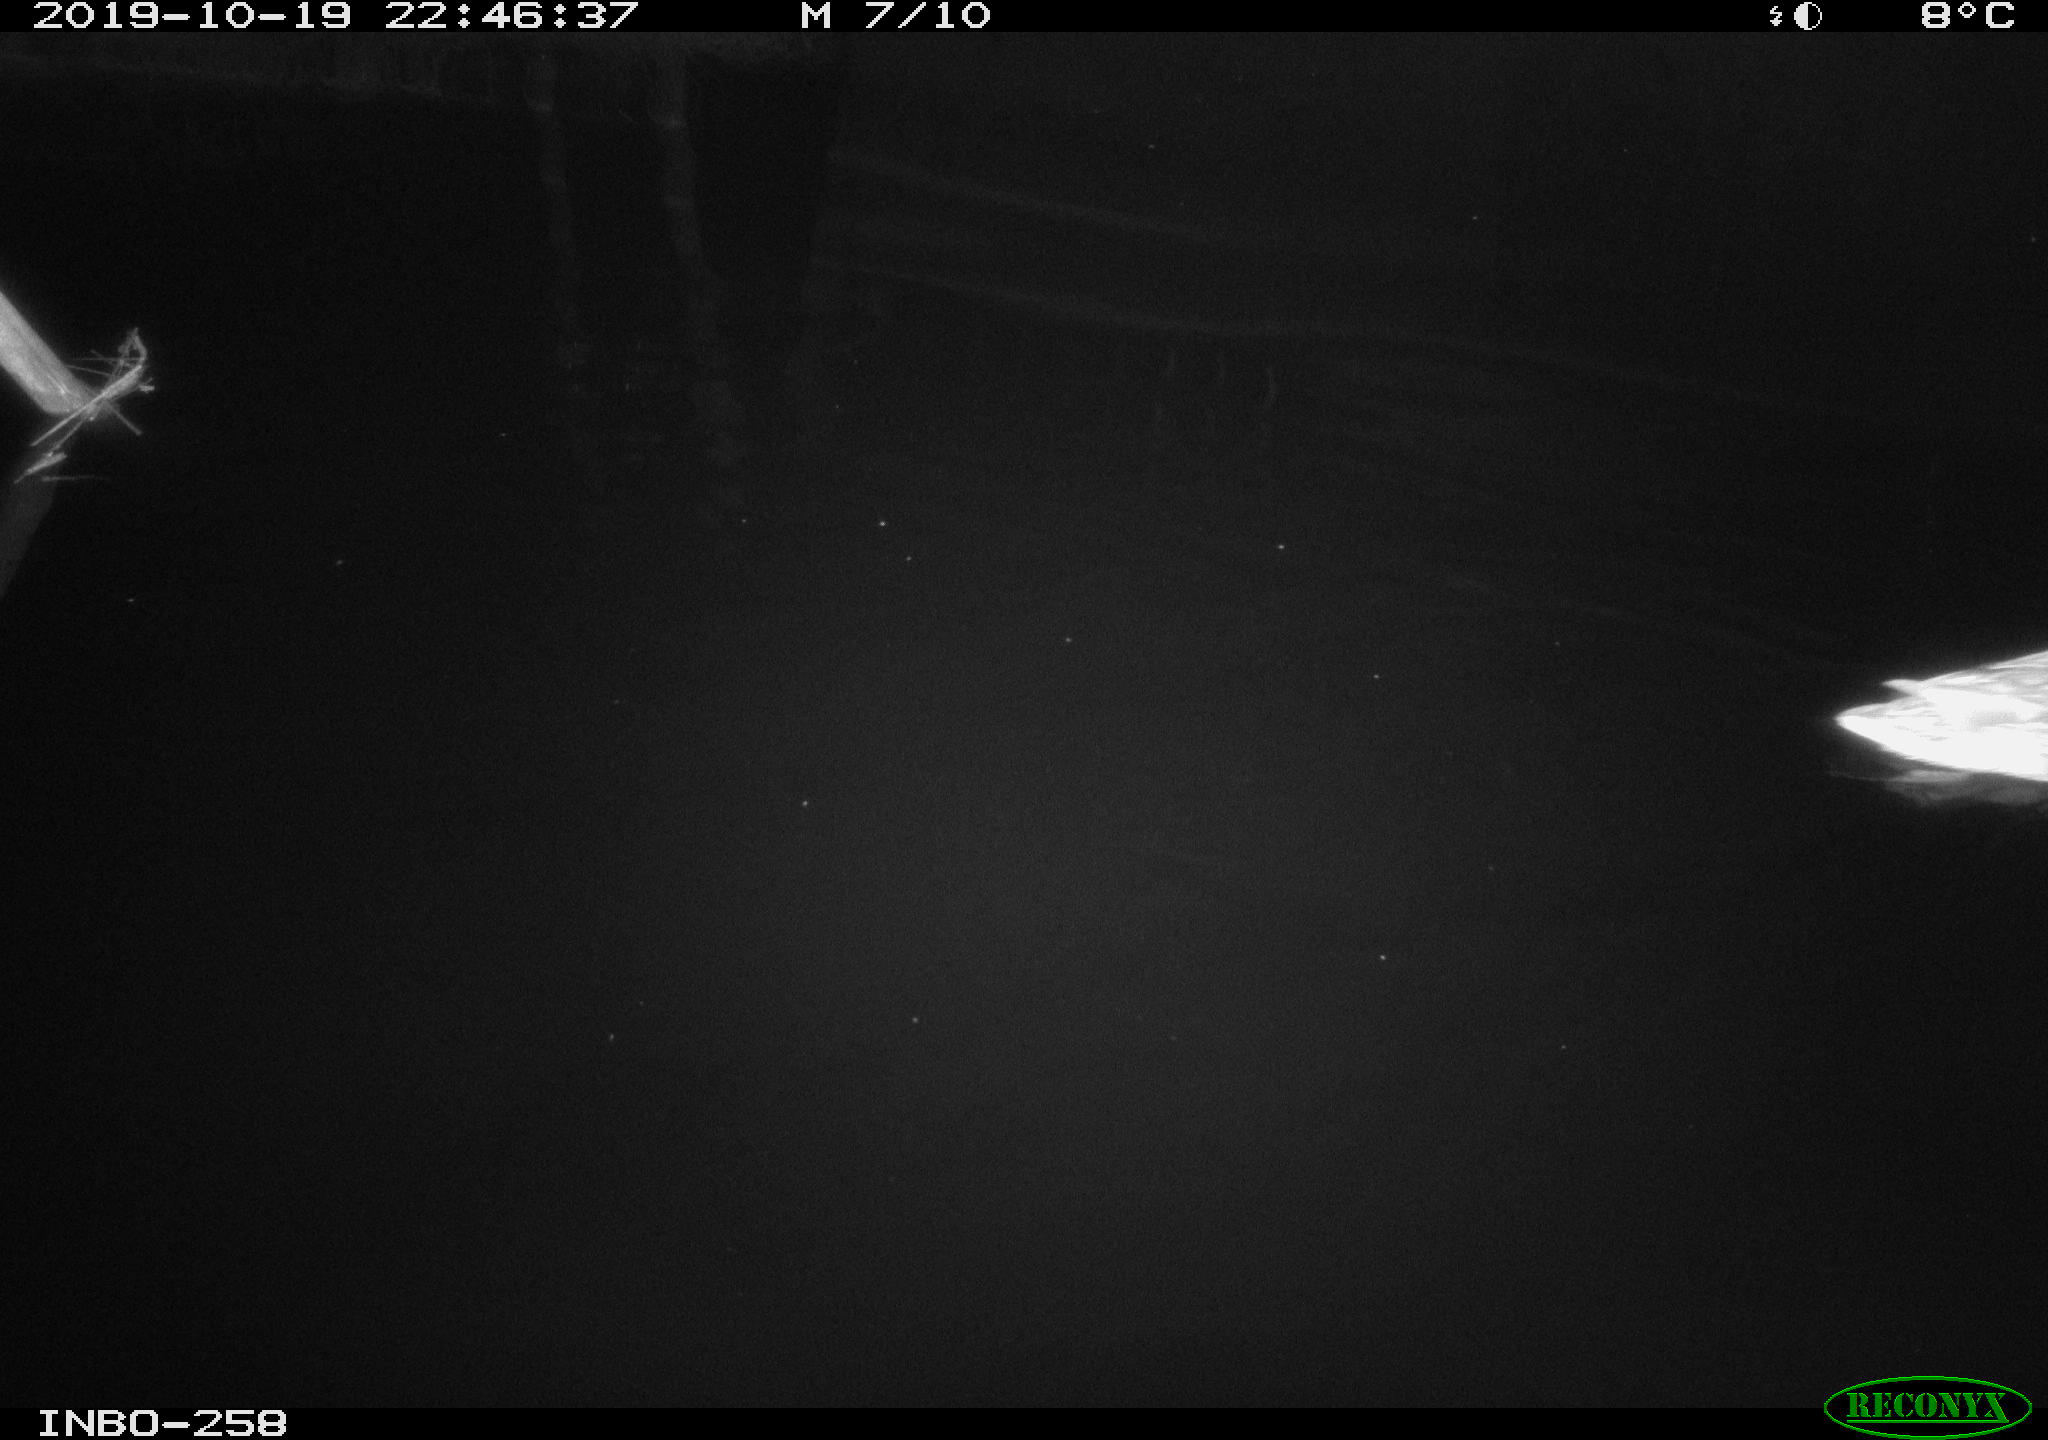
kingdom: Animalia
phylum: Chordata
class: Aves
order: Anseriformes
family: Anatidae
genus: Anas
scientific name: Anas platyrhynchos
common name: Mallard
